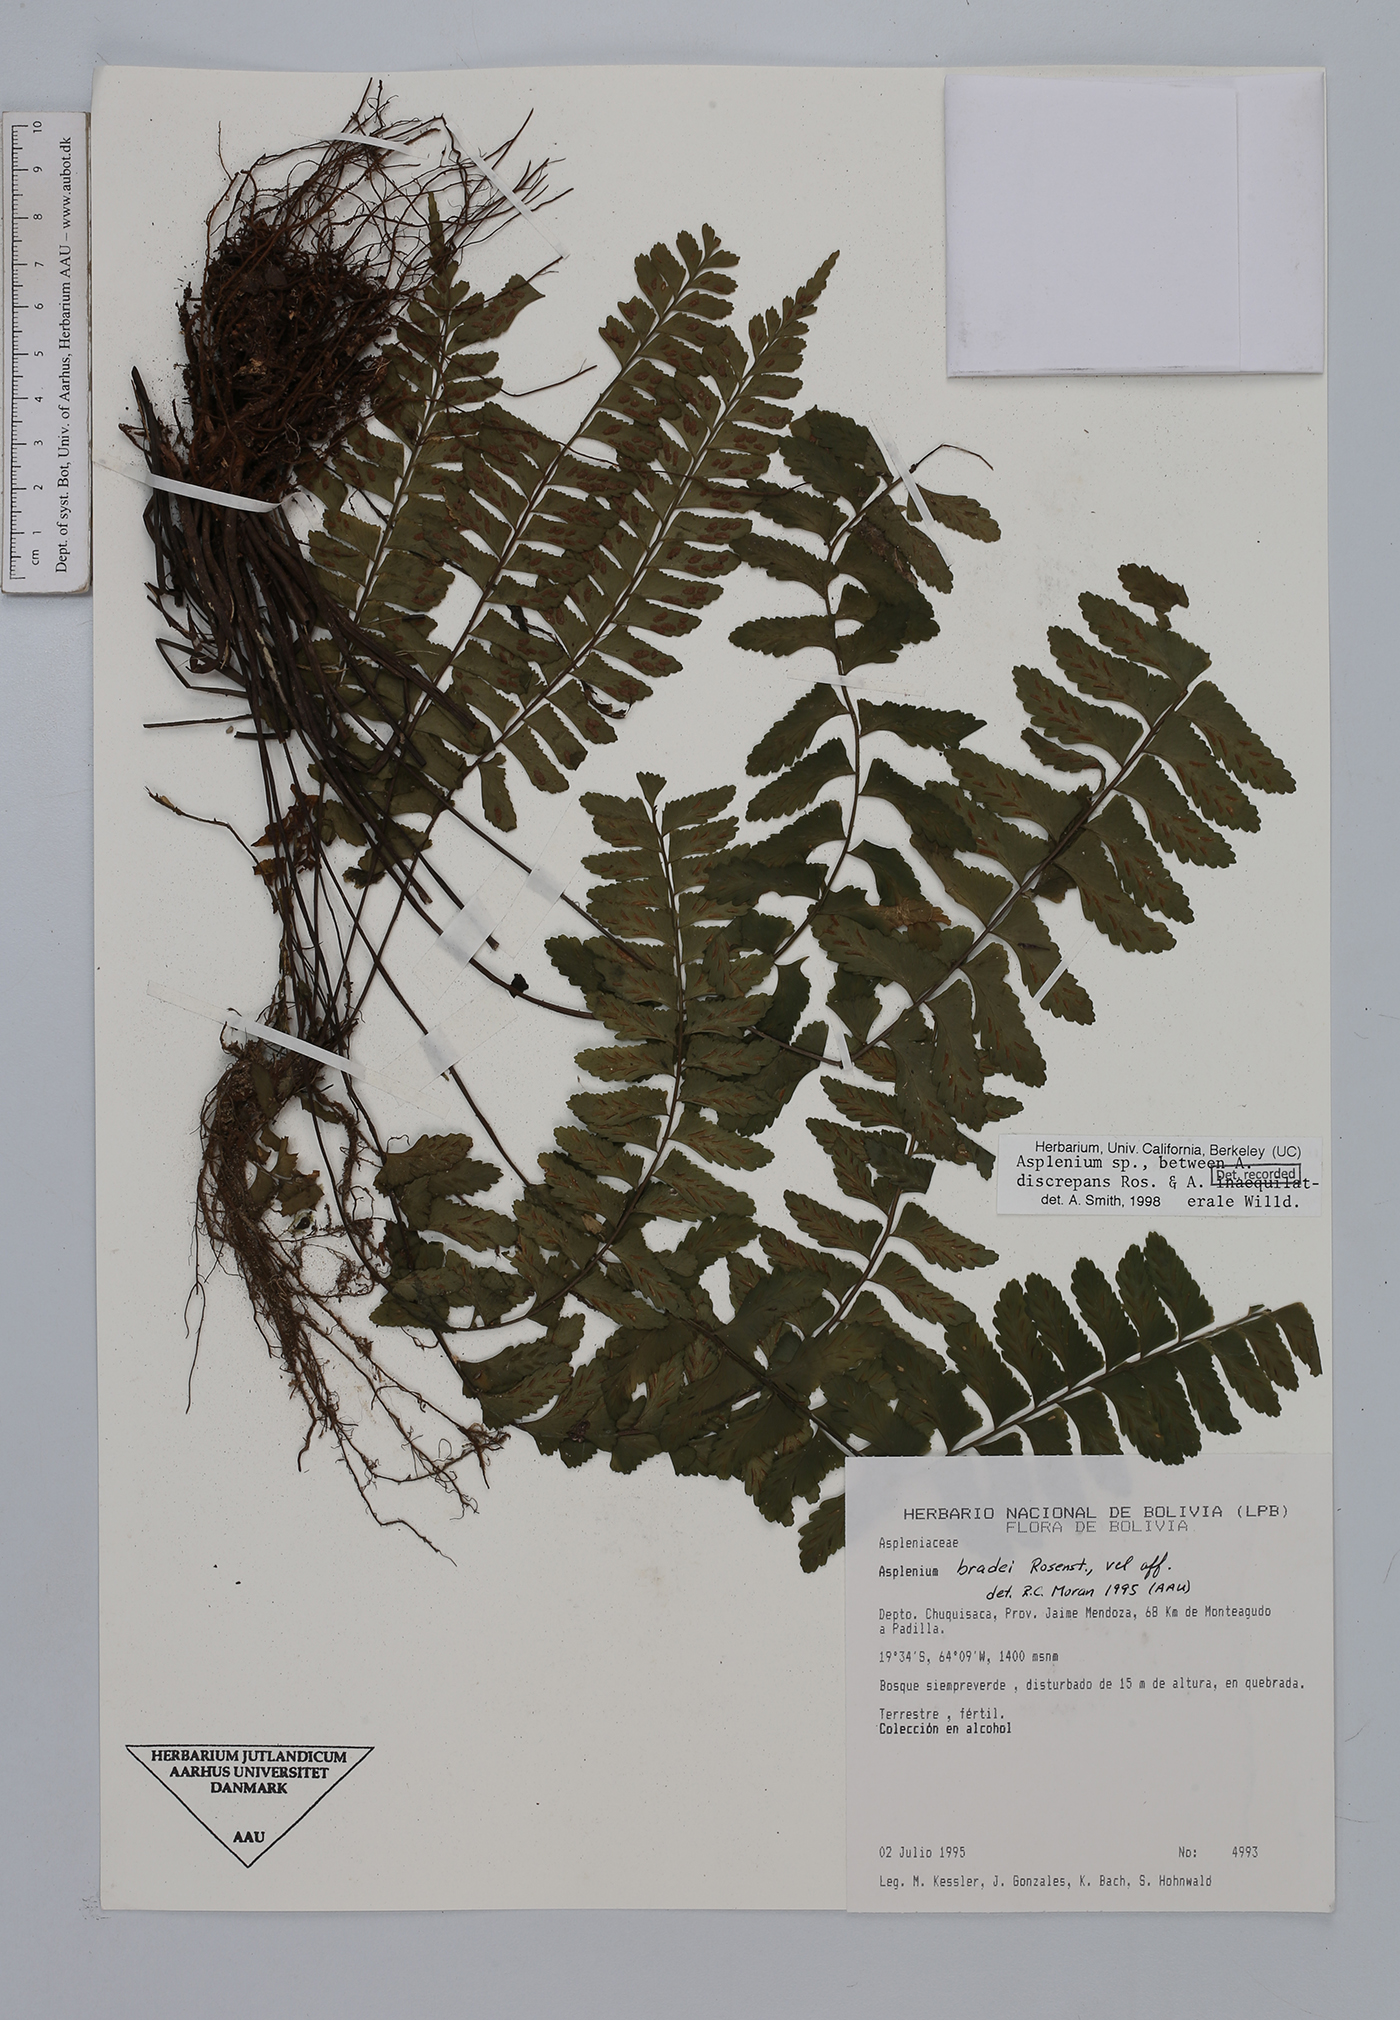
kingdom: Plantae
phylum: Tracheophyta
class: Polypodiopsida
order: Polypodiales
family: Aspleniaceae
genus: Asplenium
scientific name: Asplenium discrepans
